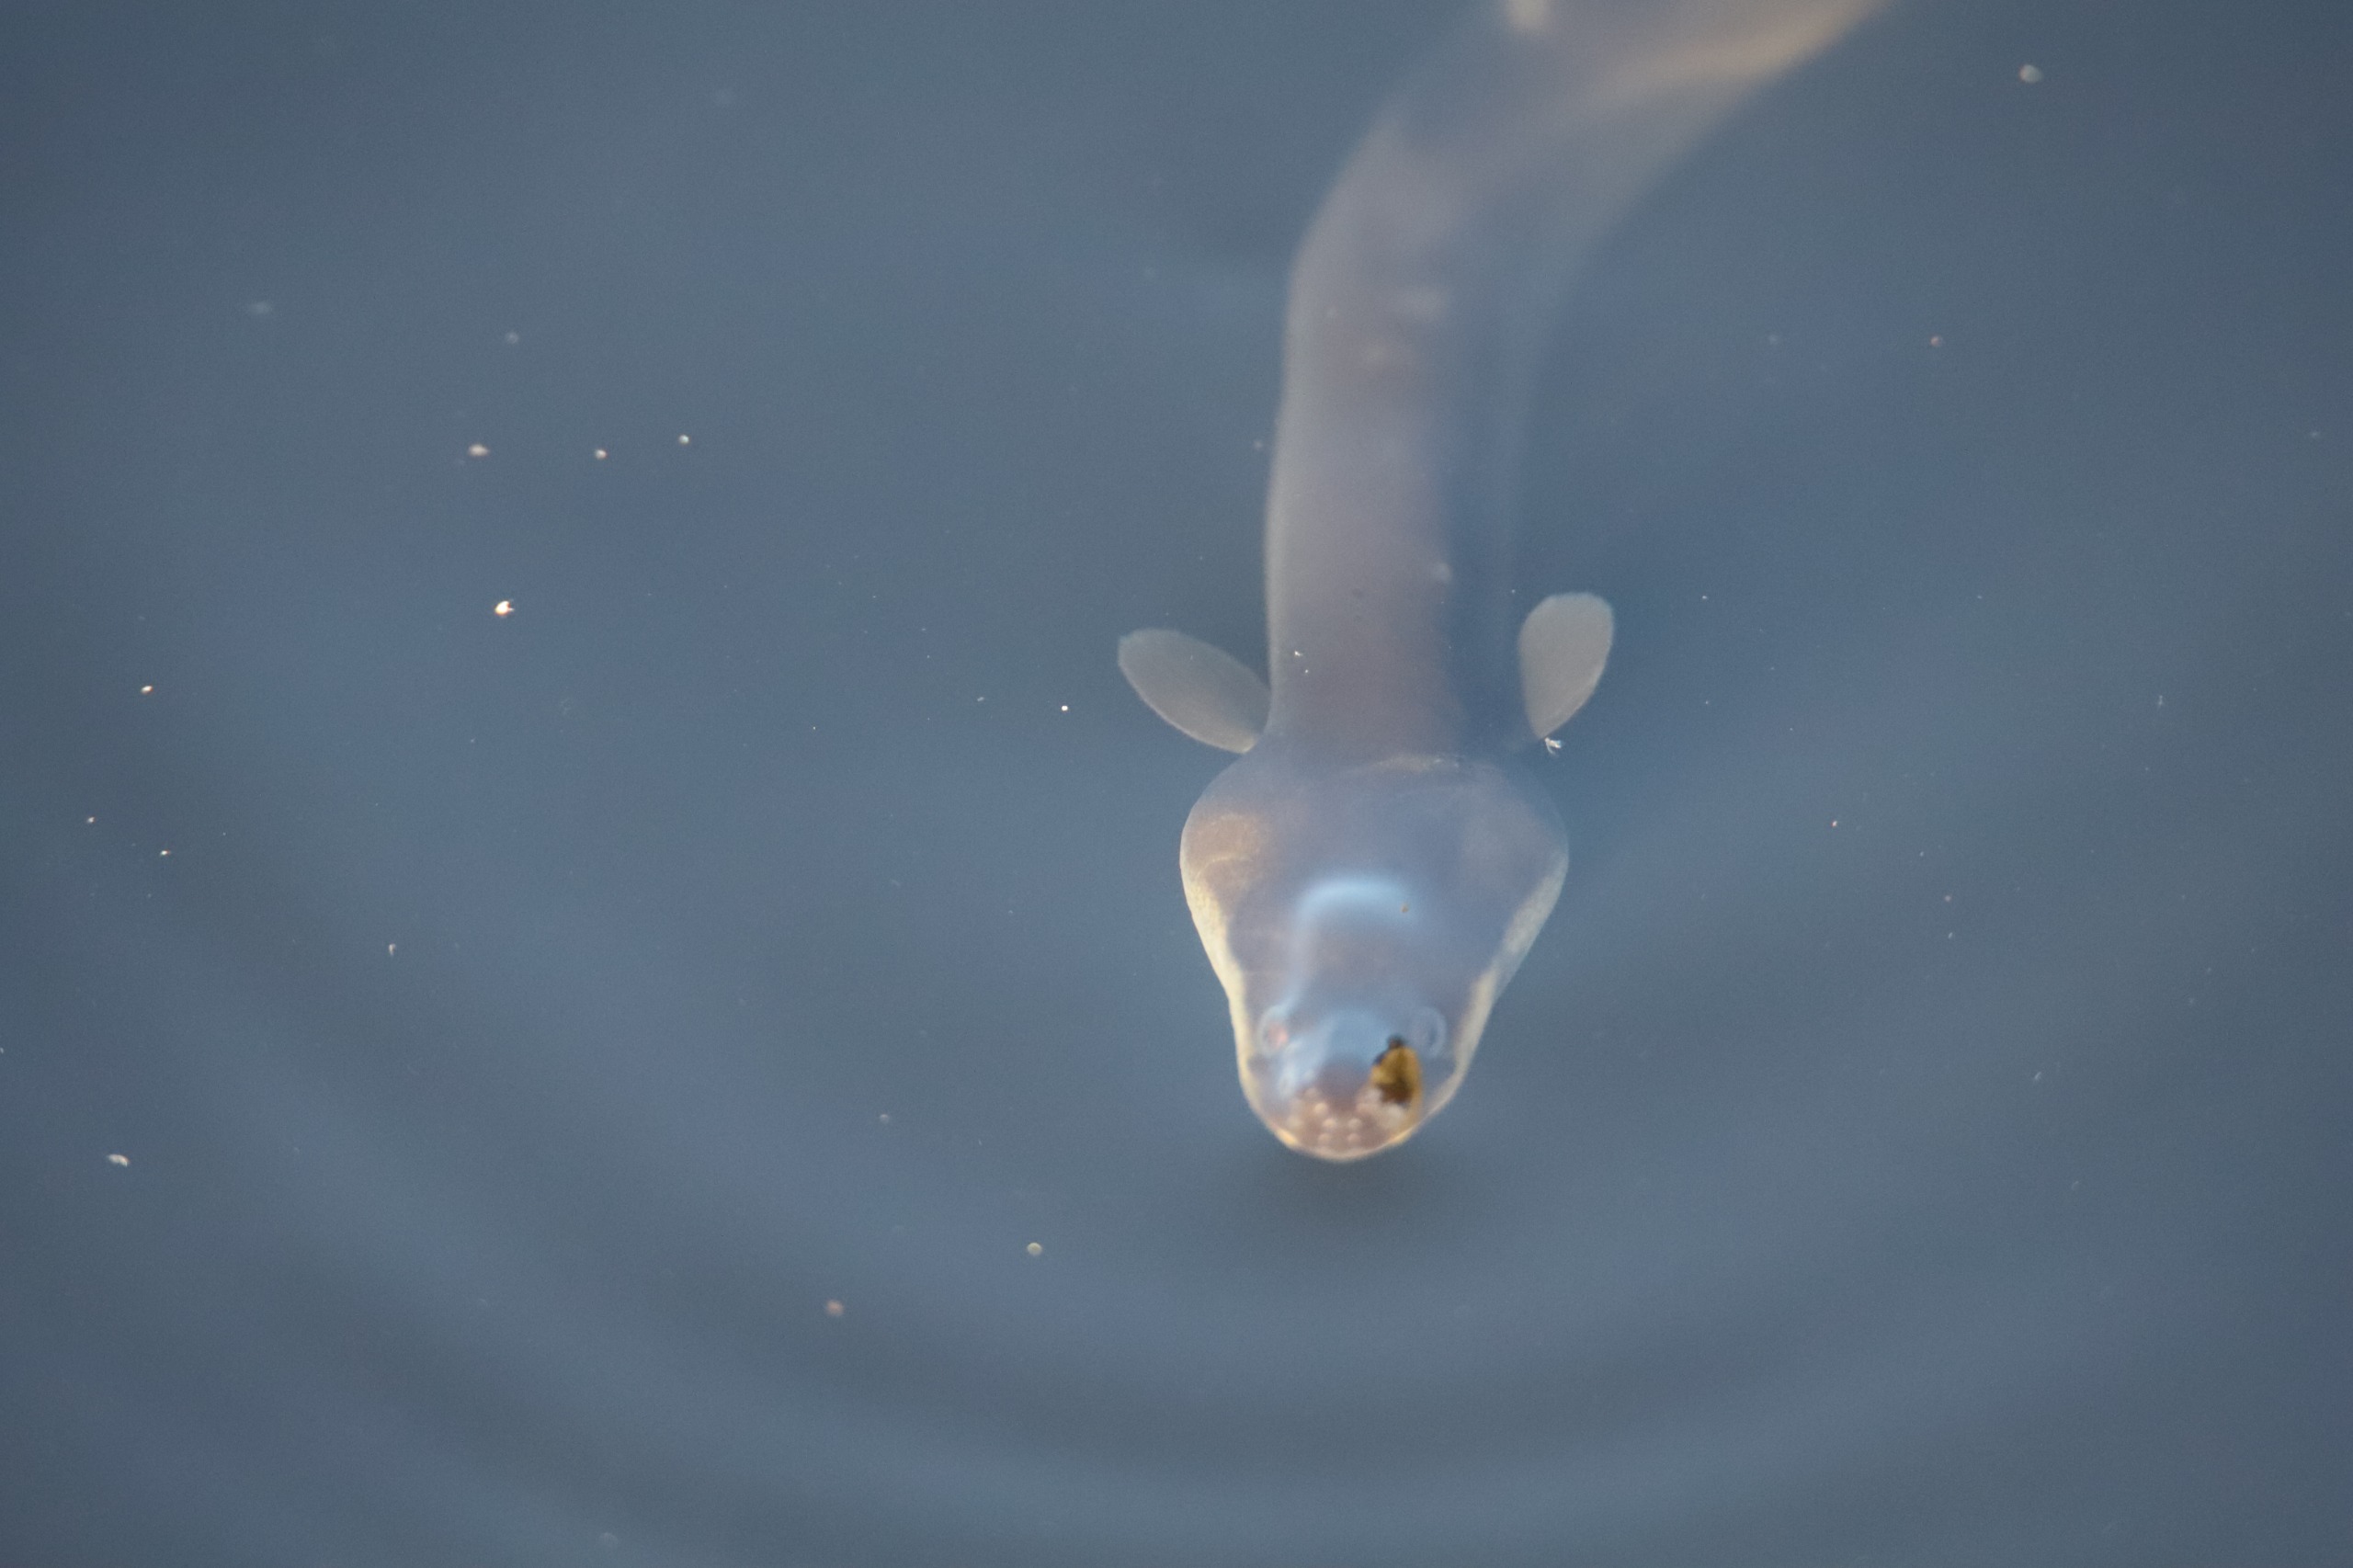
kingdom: Animalia
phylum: Chordata
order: Anguilliformes
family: Anguillidae
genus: Anguilla
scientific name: Anguilla anguilla
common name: Europæisk ål
